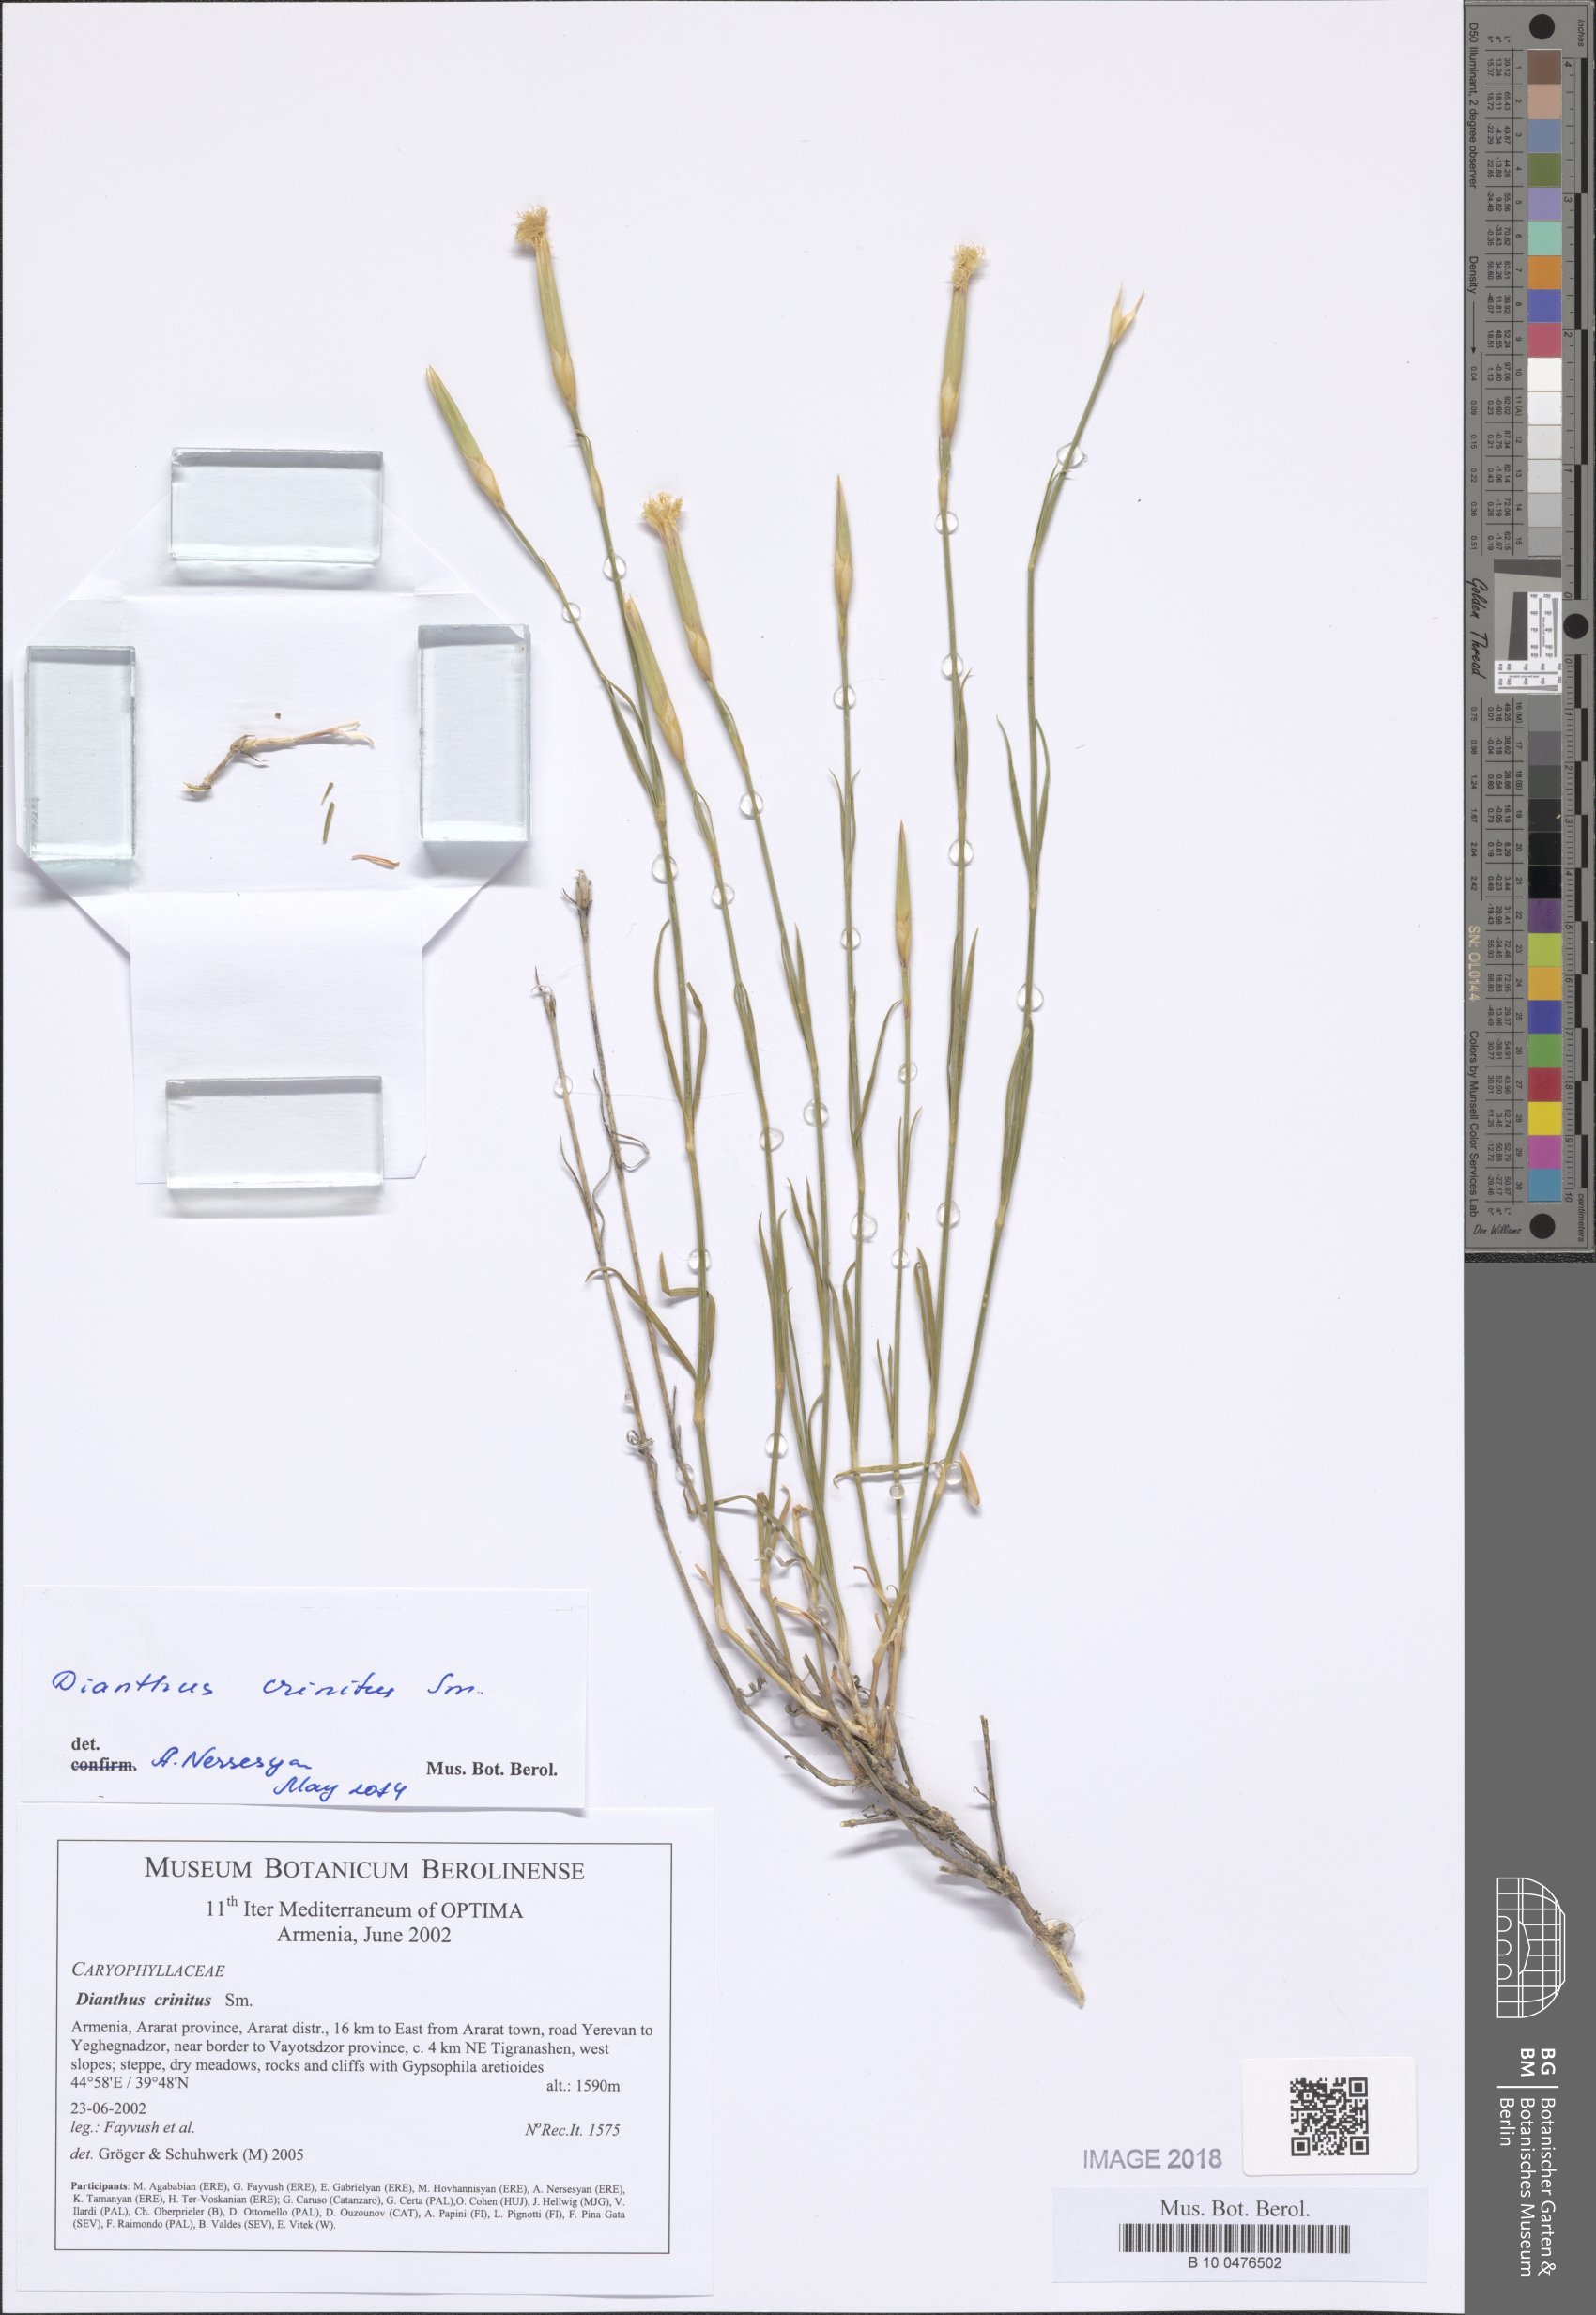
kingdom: Plantae
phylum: Tracheophyta
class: Magnoliopsida
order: Caryophyllales
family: Caryophyllaceae
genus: Dianthus
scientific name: Dianthus crinitus
